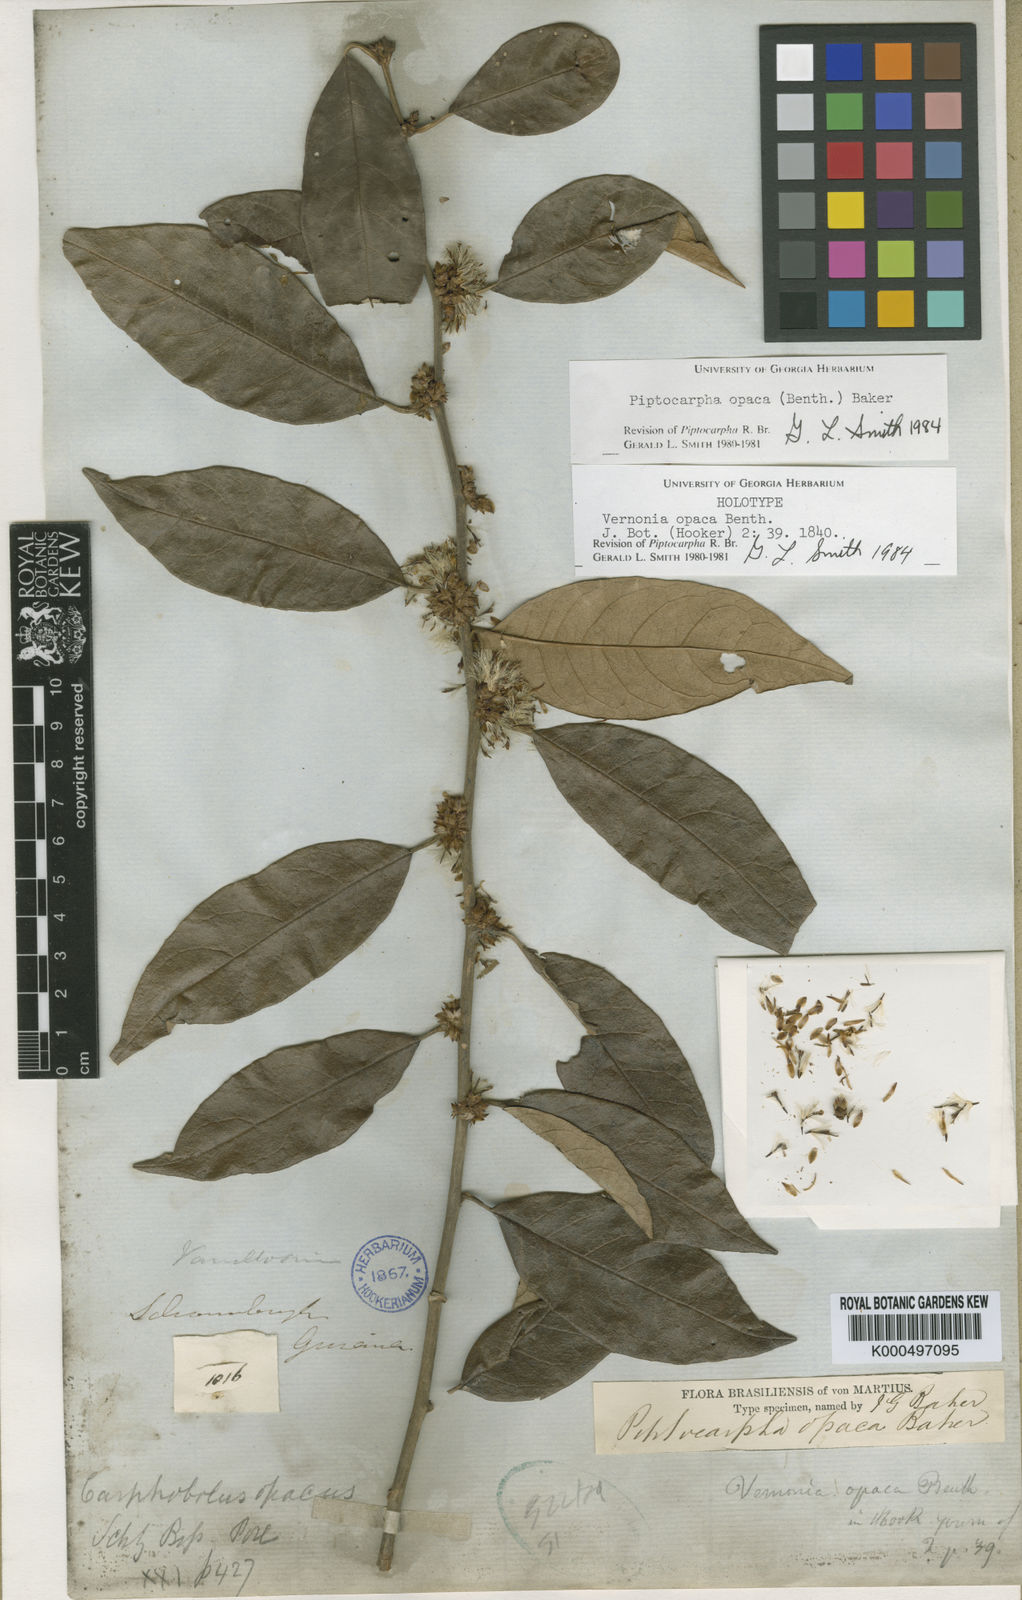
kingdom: Plantae
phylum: Tracheophyta
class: Magnoliopsida
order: Asterales
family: Asteraceae
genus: Piptocarpha
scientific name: Piptocarpha opaca
